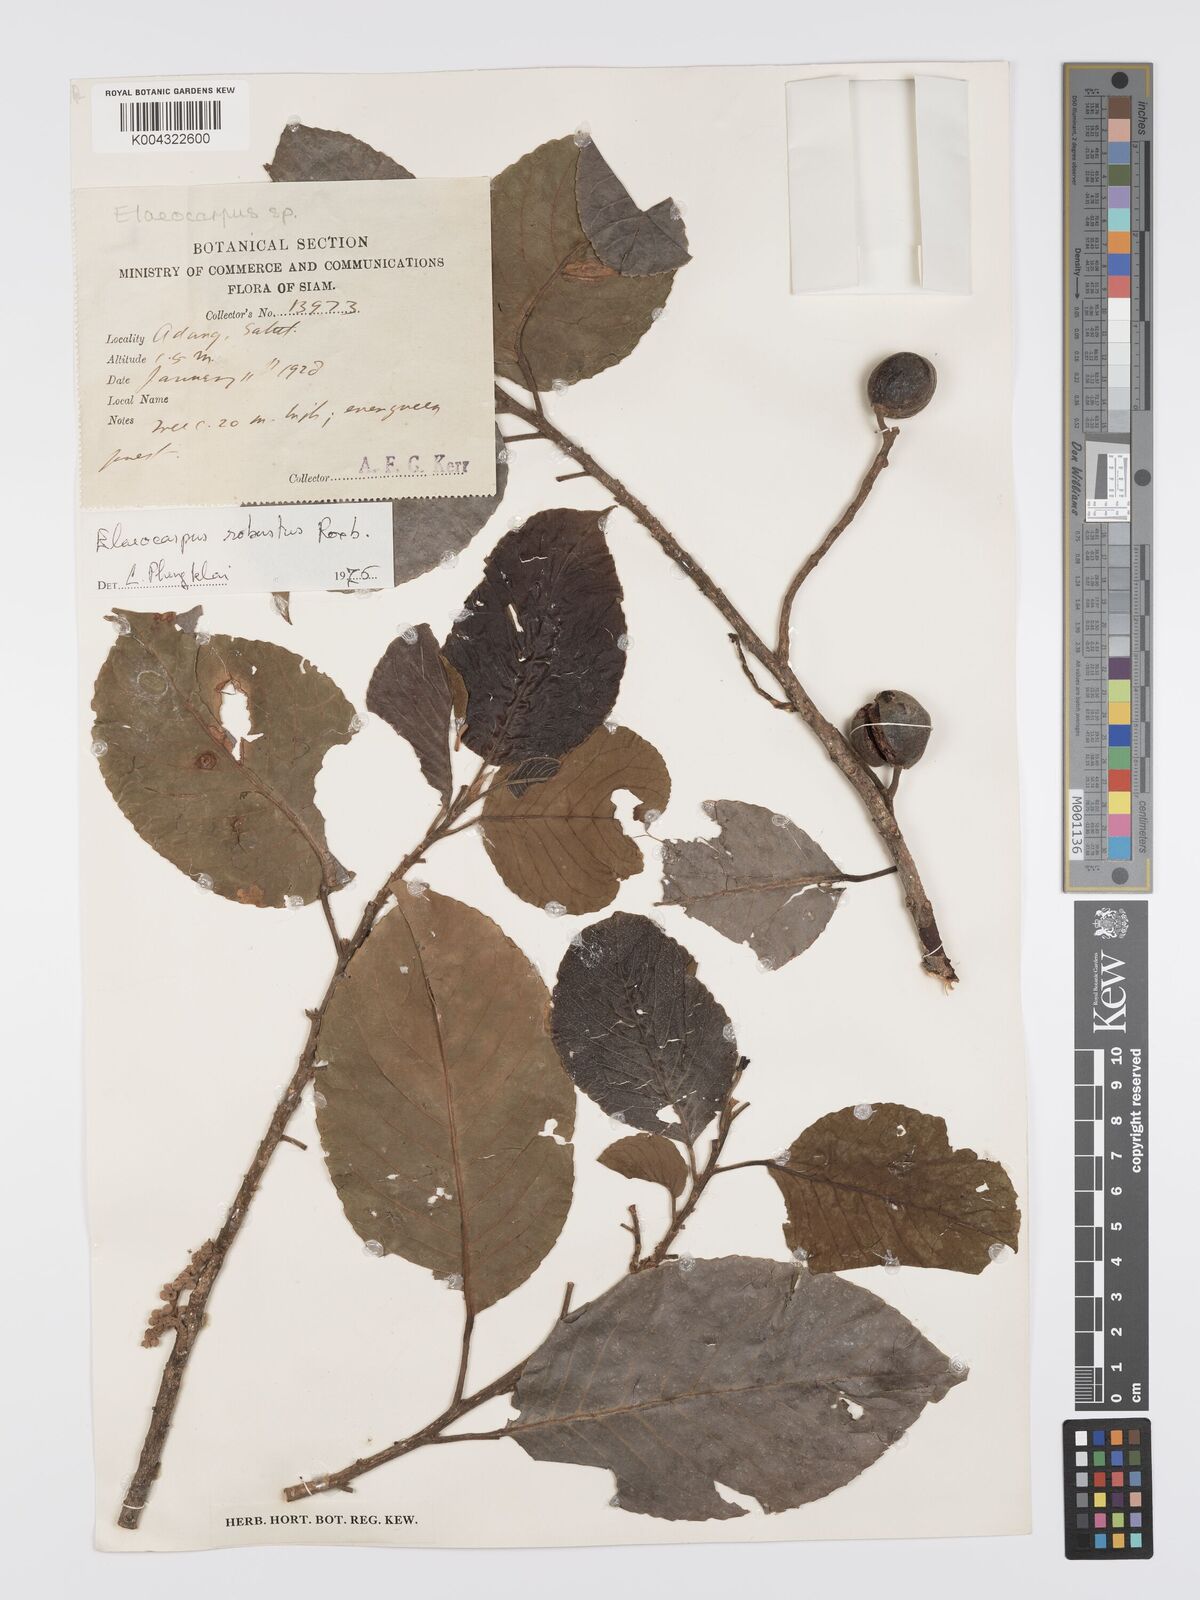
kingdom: Plantae
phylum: Tracheophyta
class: Magnoliopsida
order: Oxalidales
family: Elaeocarpaceae
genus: Elaeocarpus
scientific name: Elaeocarpus robustus
